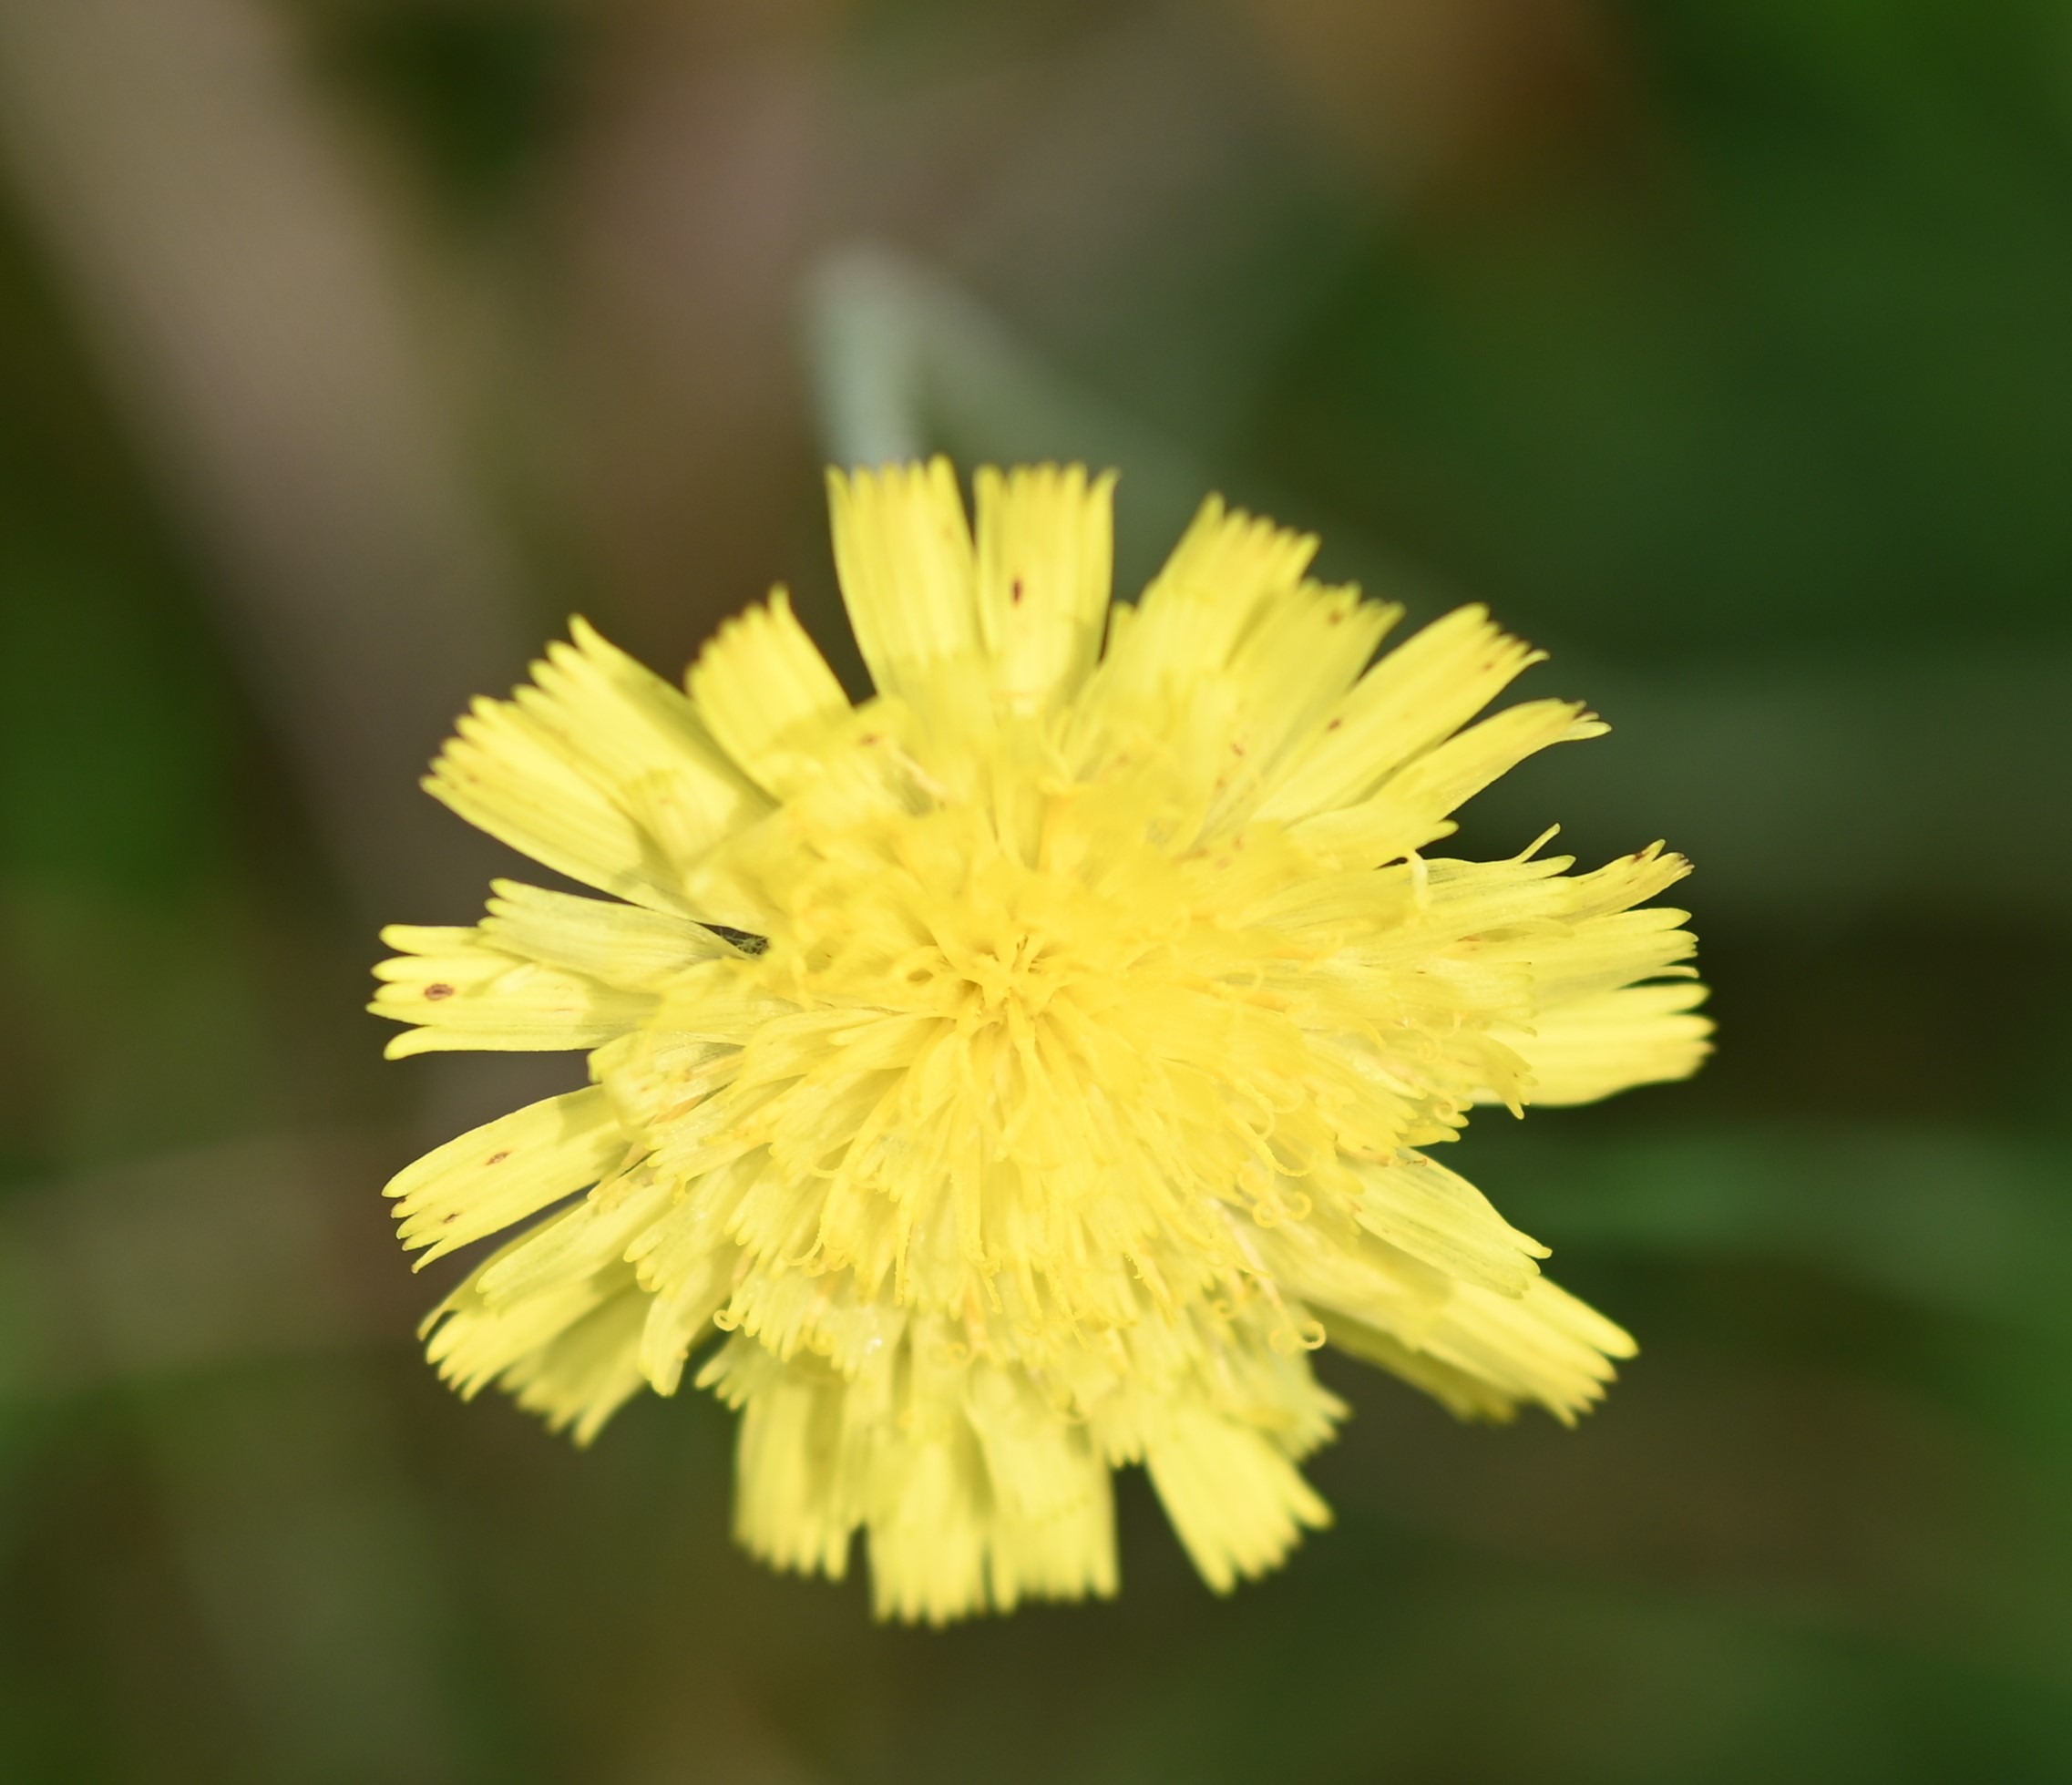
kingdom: Plantae
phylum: Tracheophyta
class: Magnoliopsida
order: Asterales
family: Asteraceae
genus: Pilosella
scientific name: Pilosella officinarum
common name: Håret høgeurt
